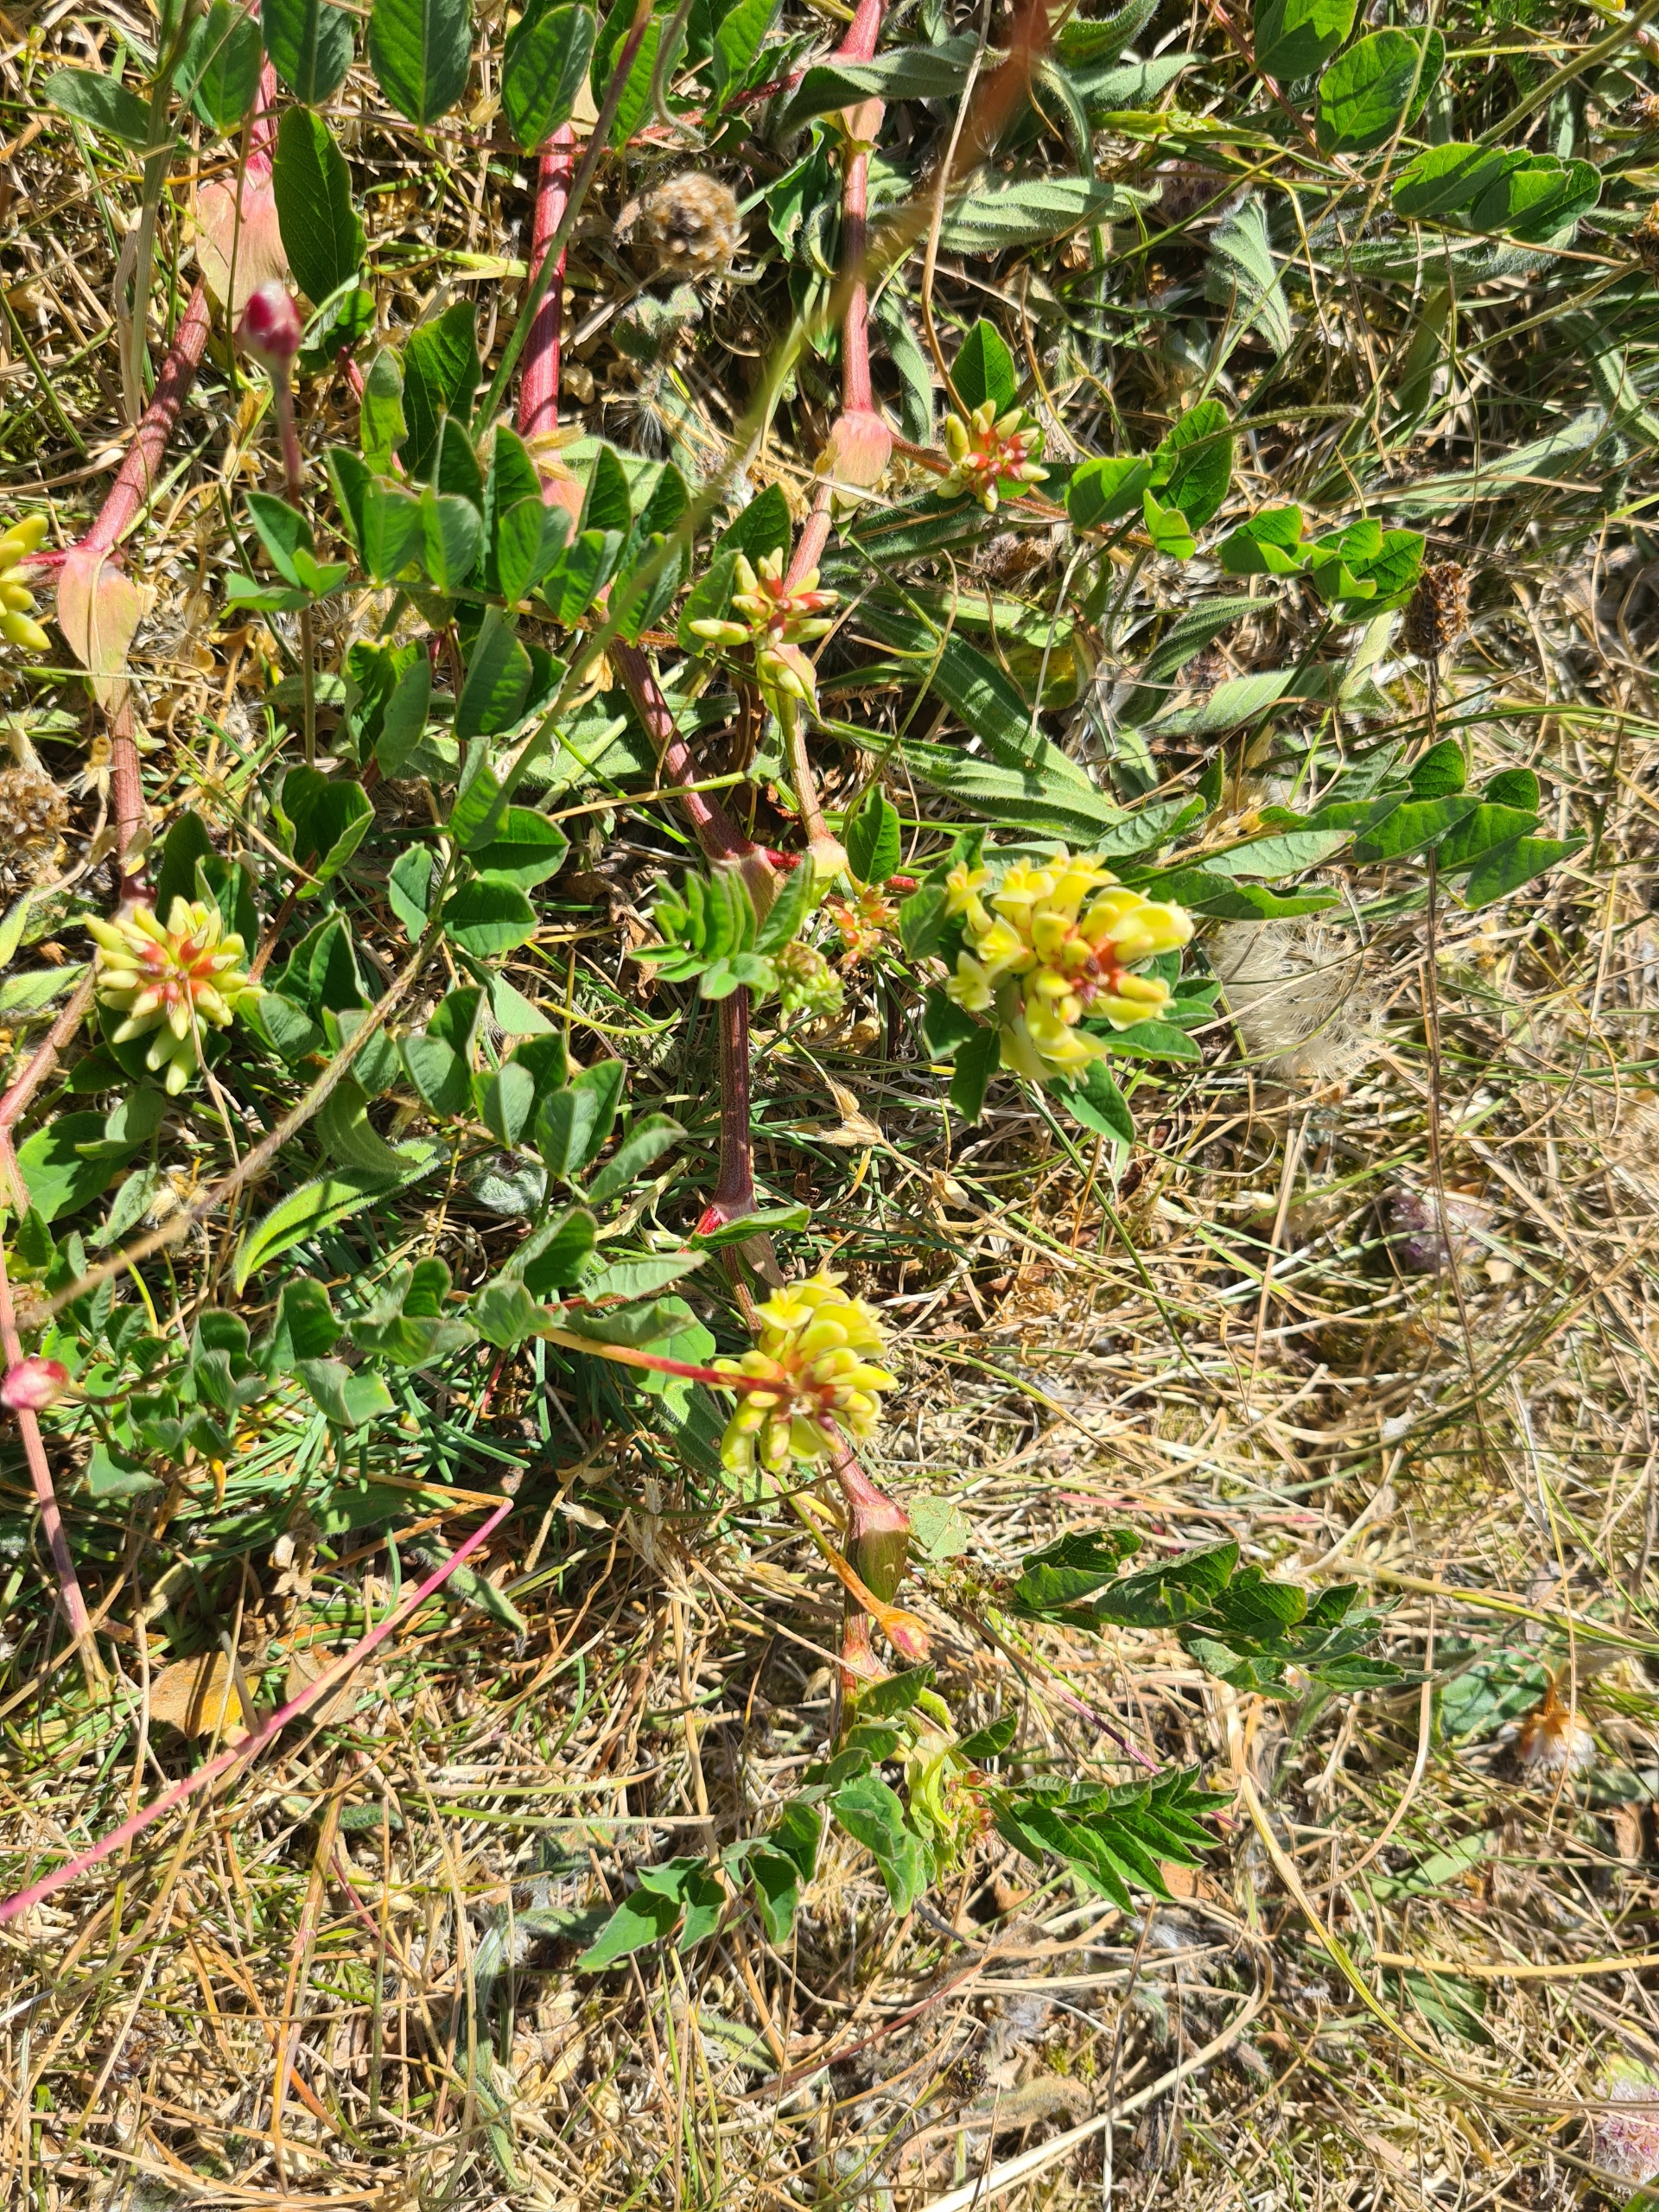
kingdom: Plantae
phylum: Tracheophyta
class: Magnoliopsida
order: Fabales
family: Fabaceae
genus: Astragalus
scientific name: Astragalus glycyphyllos
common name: Sød astragel
